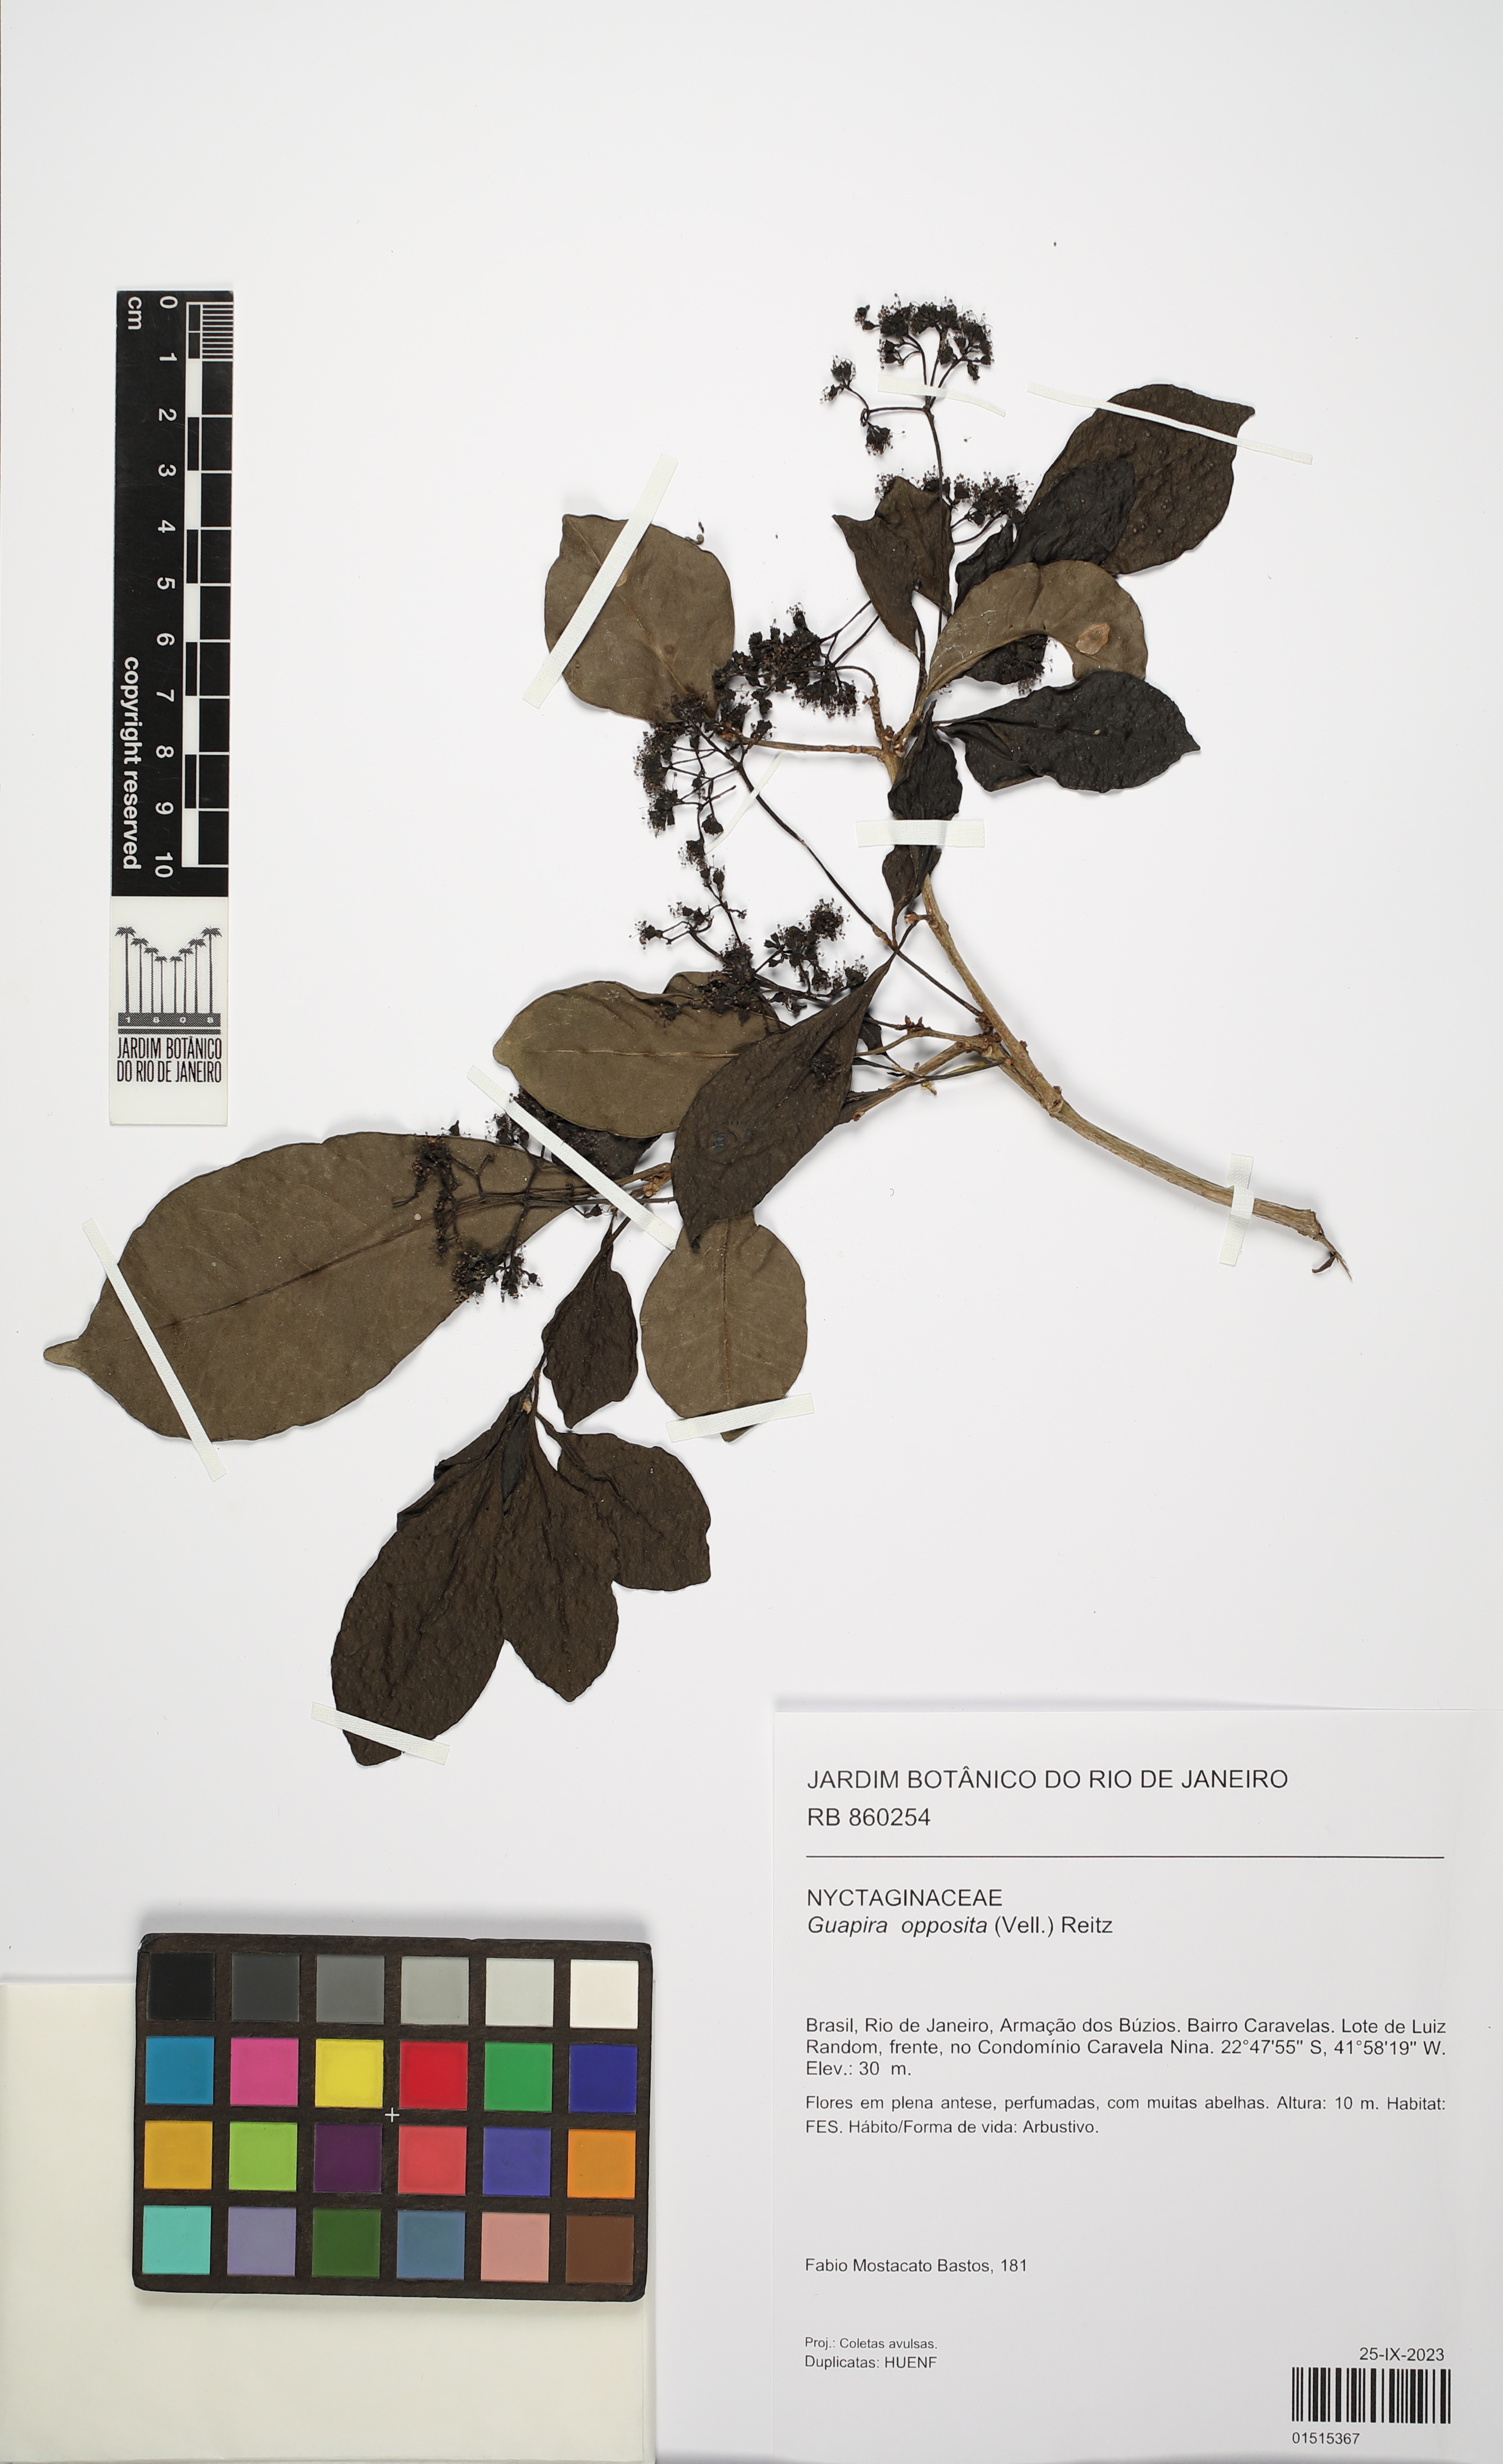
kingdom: Plantae
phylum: Tracheophyta
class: Magnoliopsida
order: Caryophyllales
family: Nyctaginaceae
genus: Guapira
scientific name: Guapira opposita
